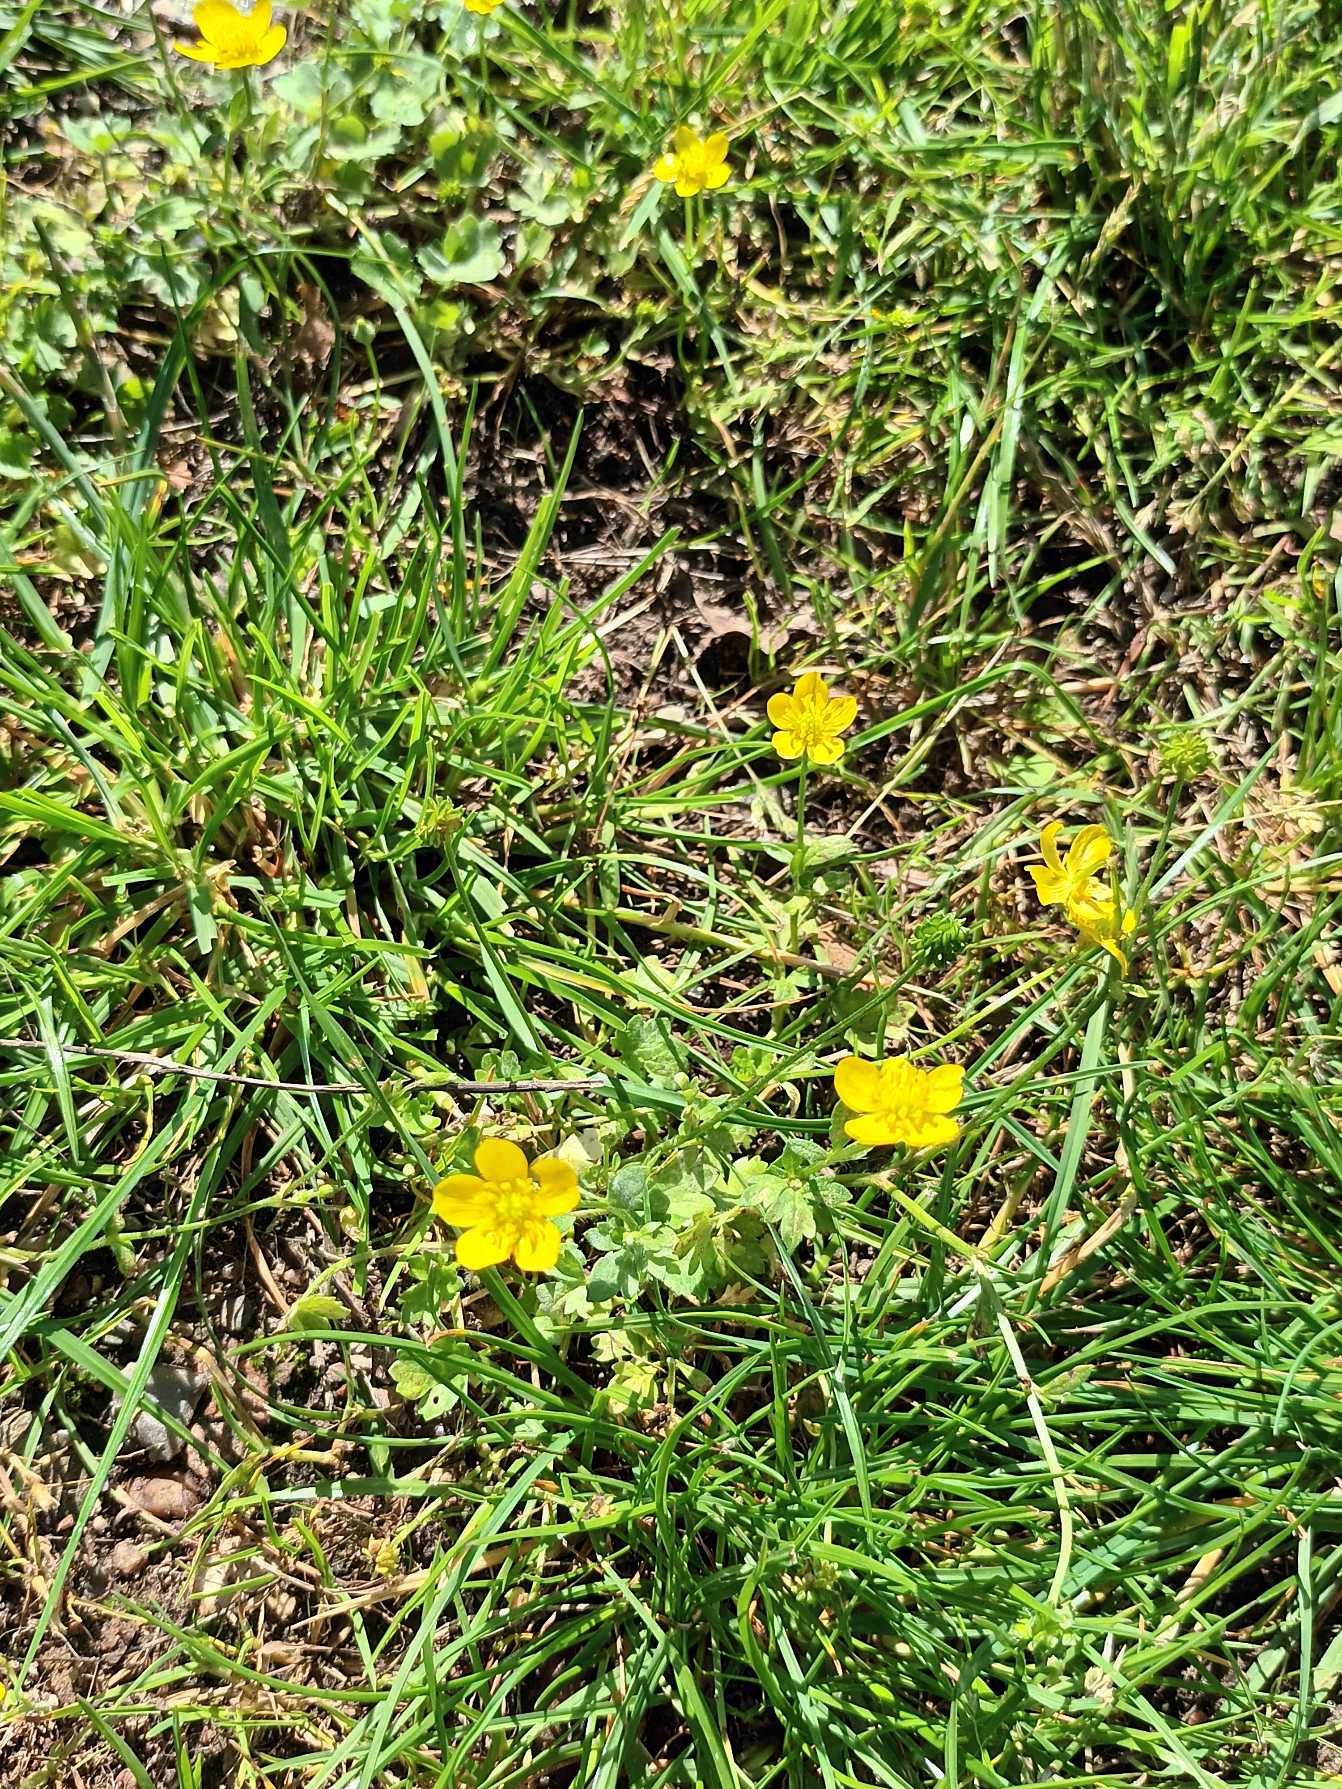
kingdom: Plantae
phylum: Tracheophyta
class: Magnoliopsida
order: Ranunculales
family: Ranunculaceae
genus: Ranunculus
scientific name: Ranunculus sardous
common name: Stivhåret ranunkel
